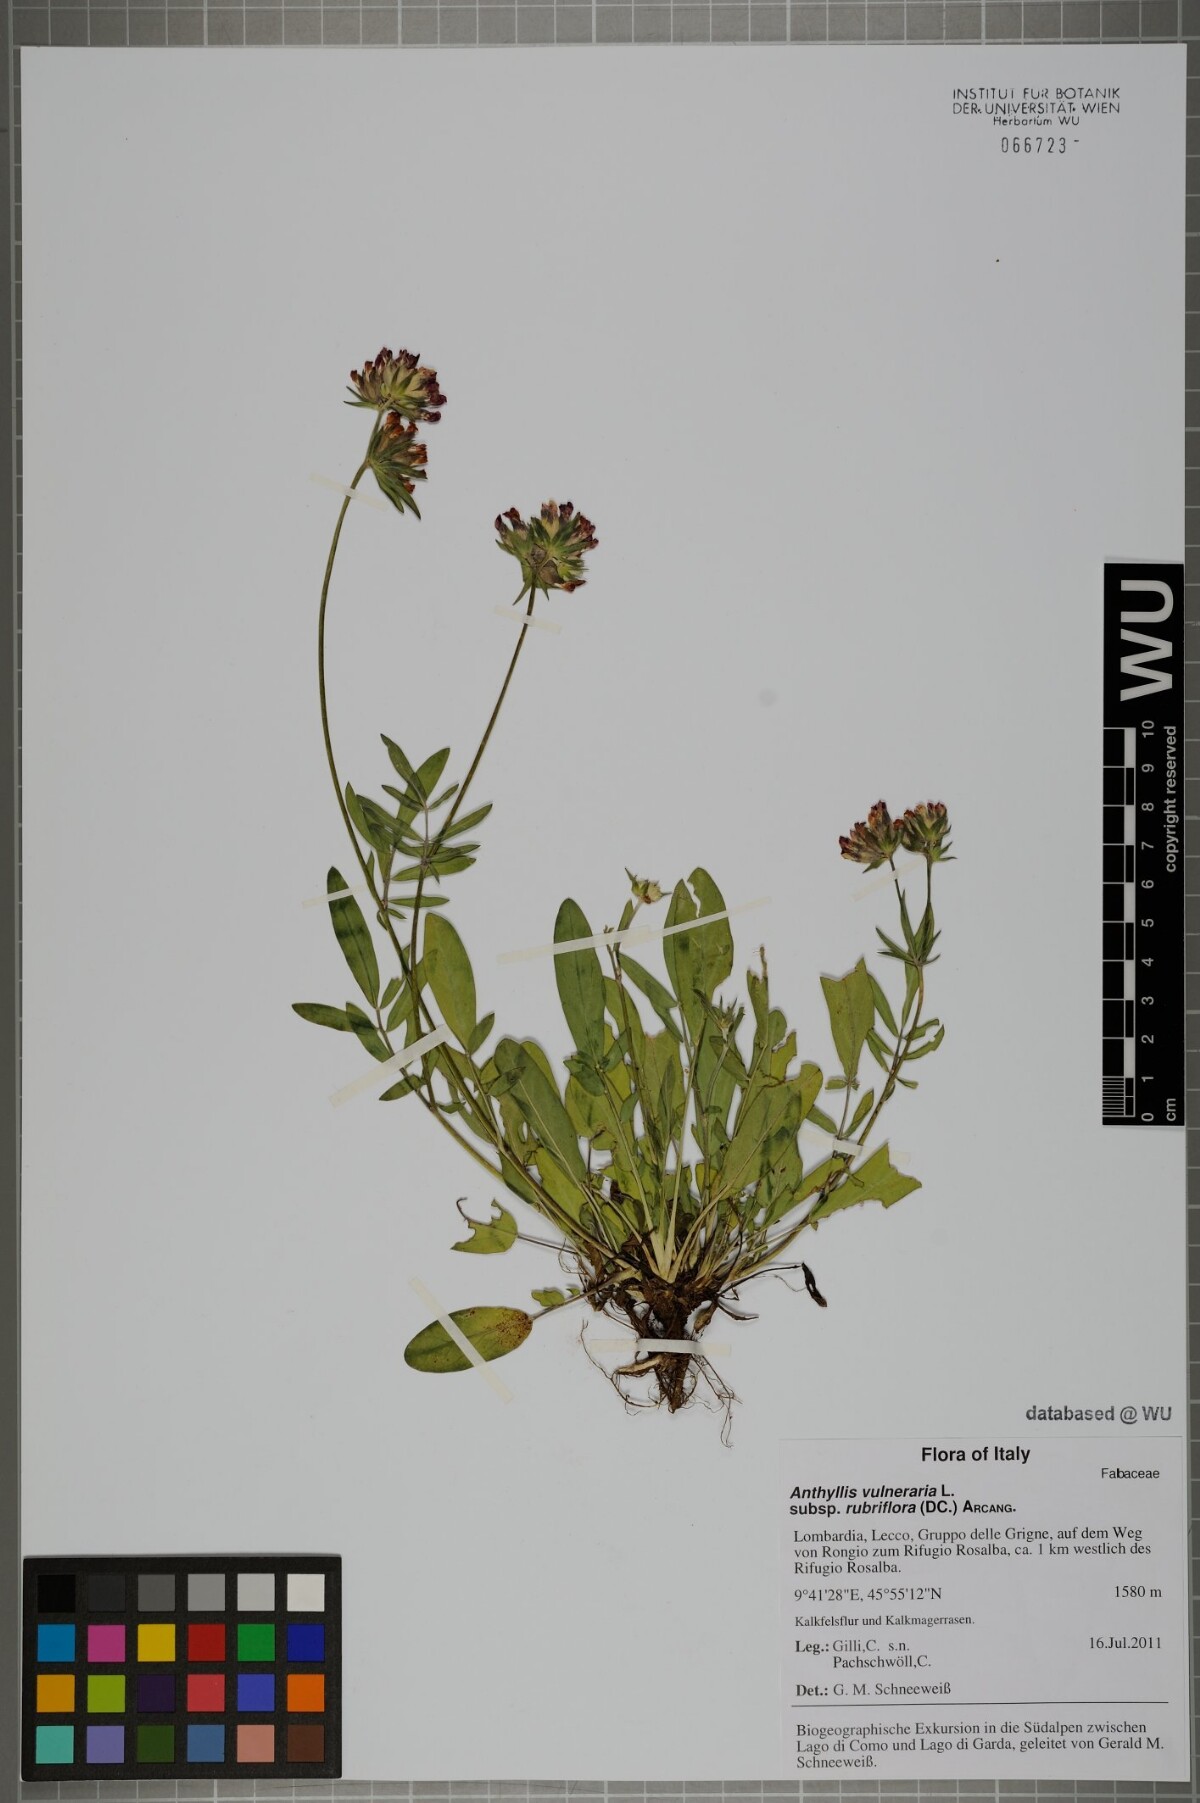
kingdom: Plantae
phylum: Tracheophyta
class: Magnoliopsida
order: Fabales
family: Fabaceae
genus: Anthyllis
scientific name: Anthyllis vulneraria
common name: Kidney vetch
